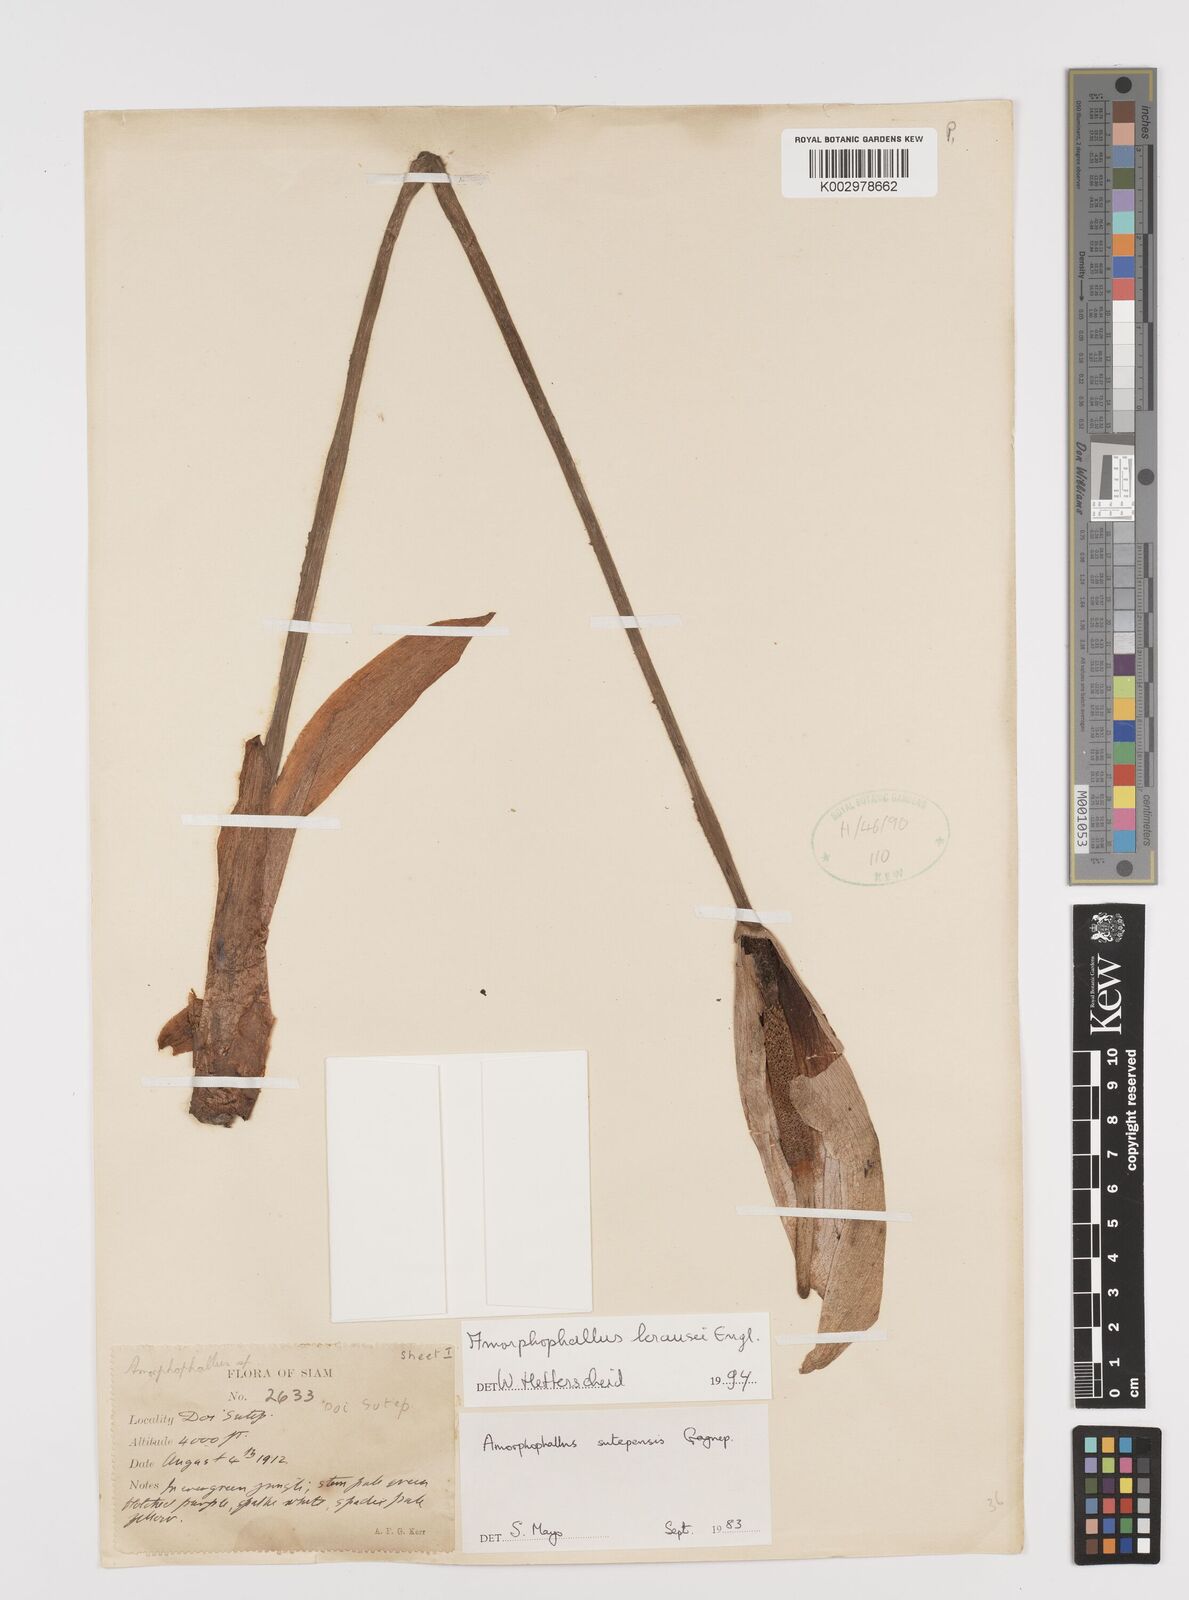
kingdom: Plantae
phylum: Tracheophyta
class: Liliopsida
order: Alismatales
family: Araceae
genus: Amorphophallus
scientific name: Amorphophallus krausei
